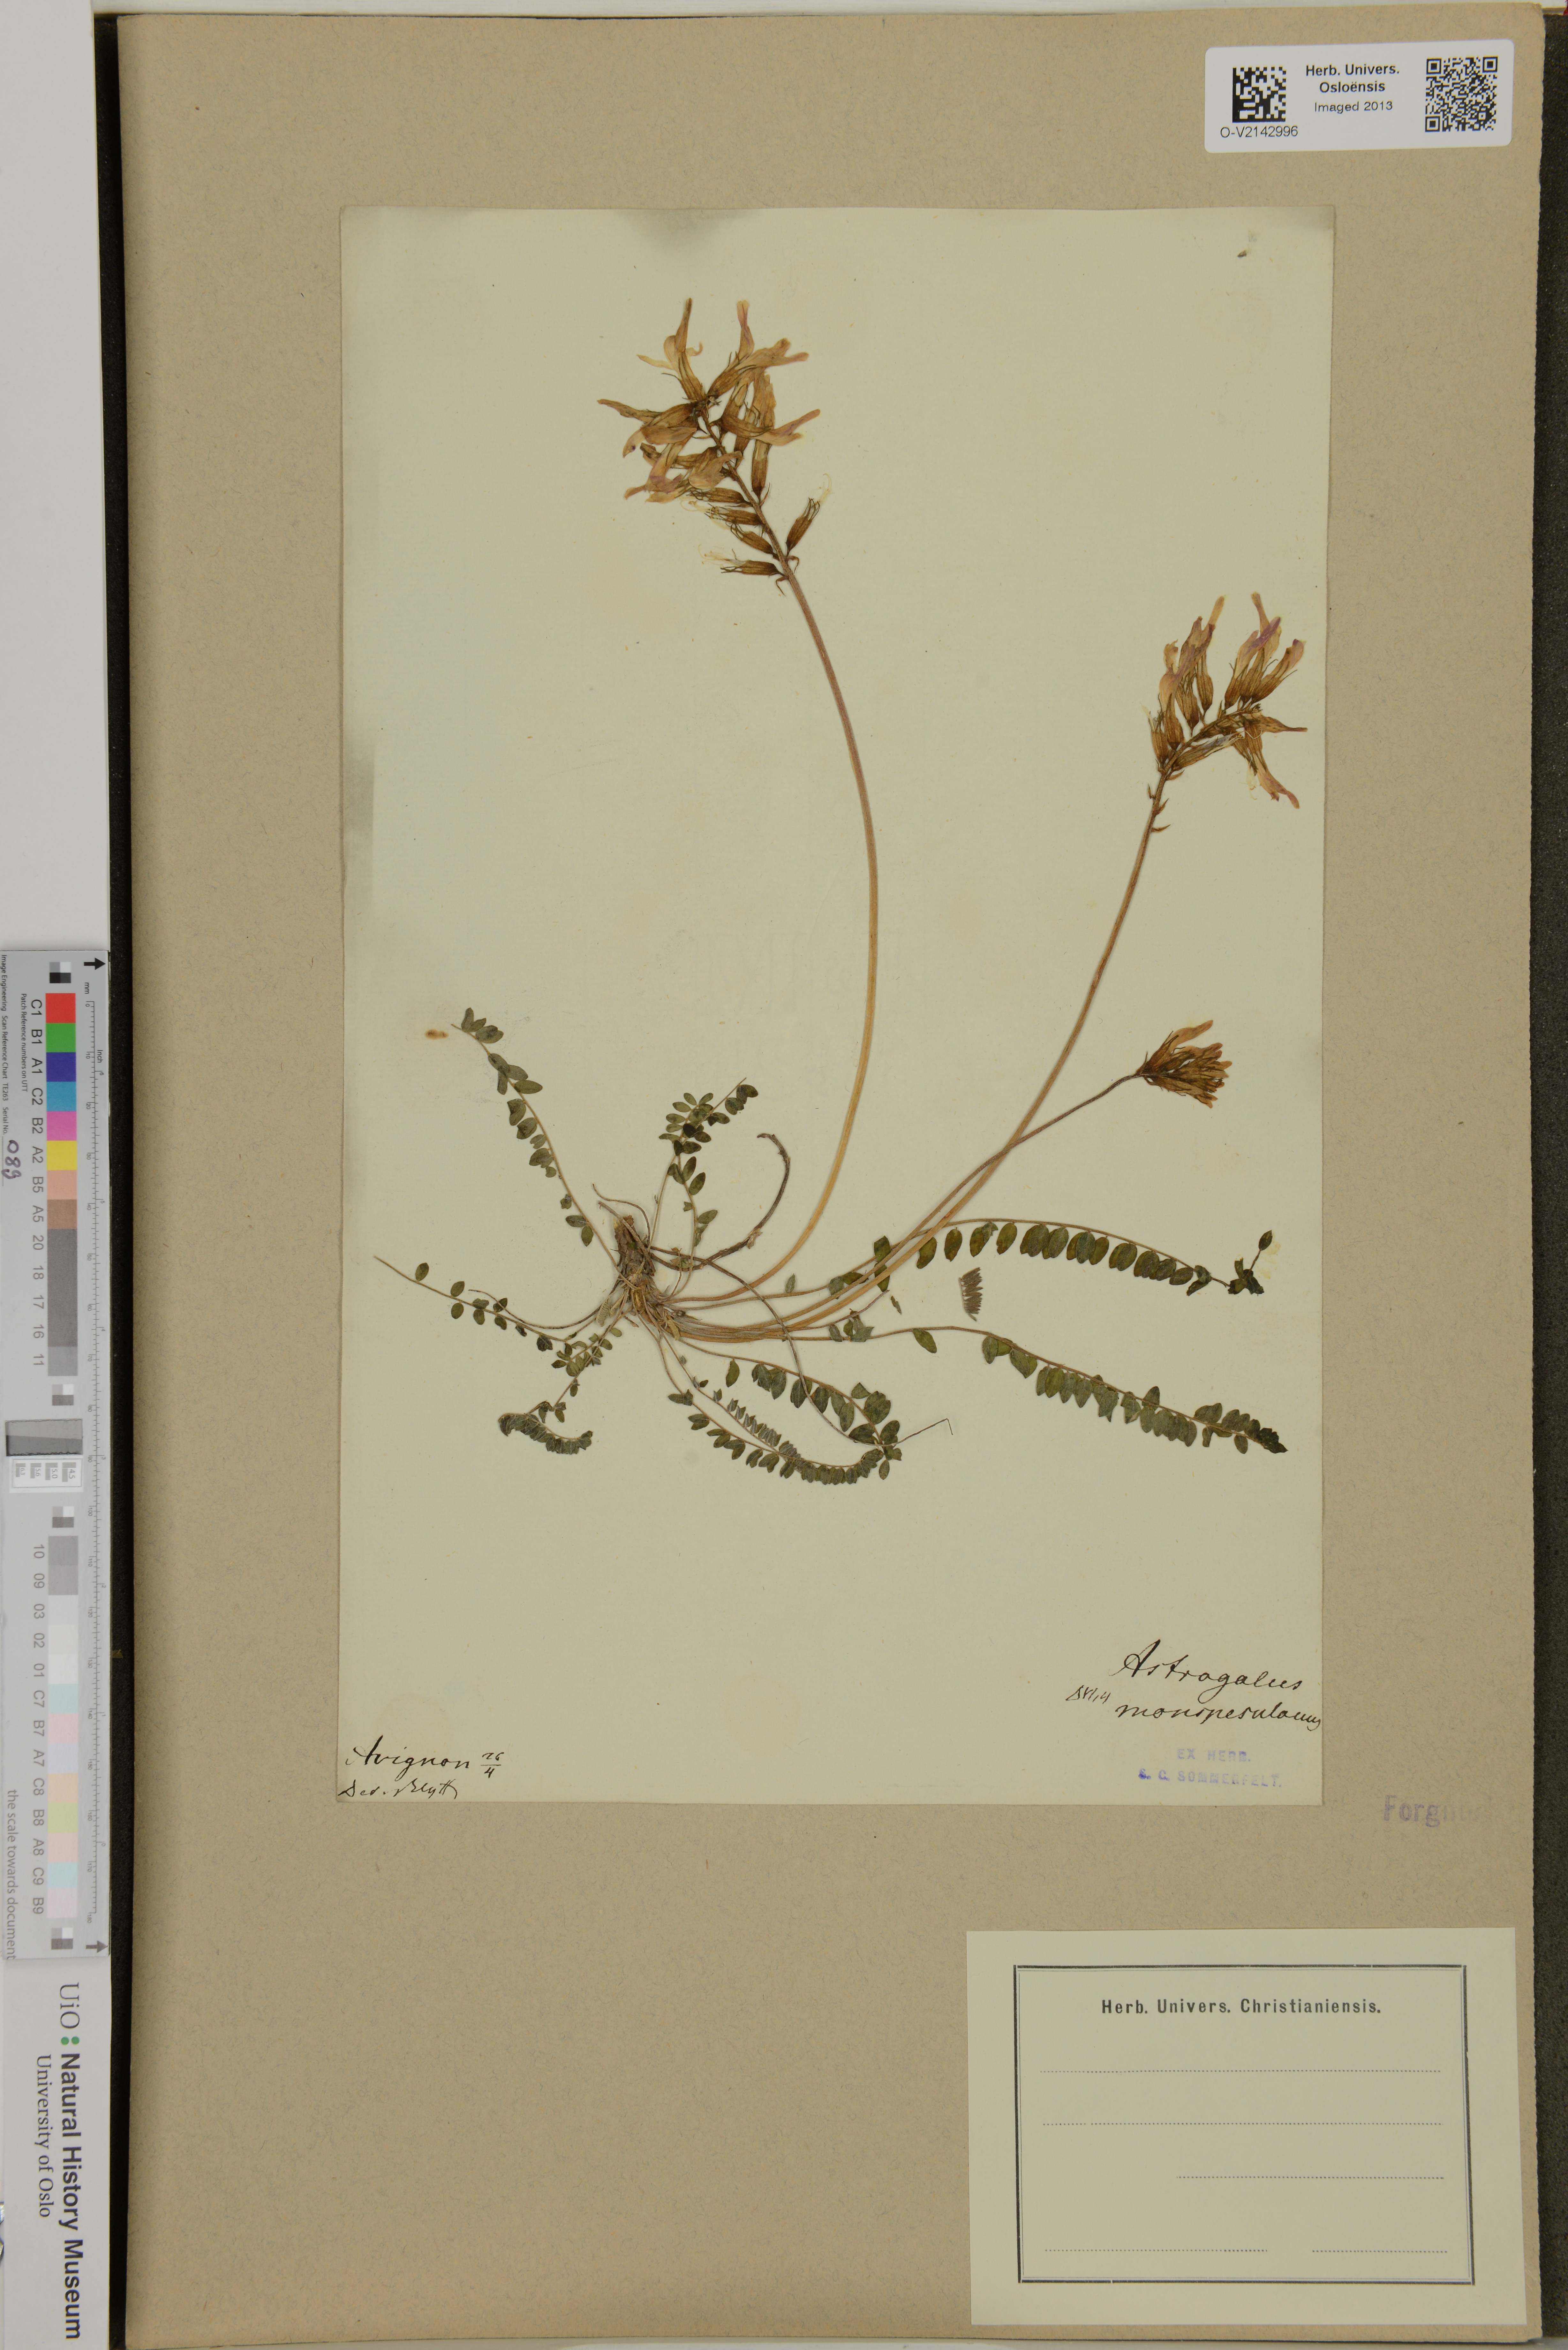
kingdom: Plantae
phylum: Tracheophyta
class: Magnoliopsida
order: Fabales
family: Fabaceae
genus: Astragalus
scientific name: Astragalus monspessulanus
